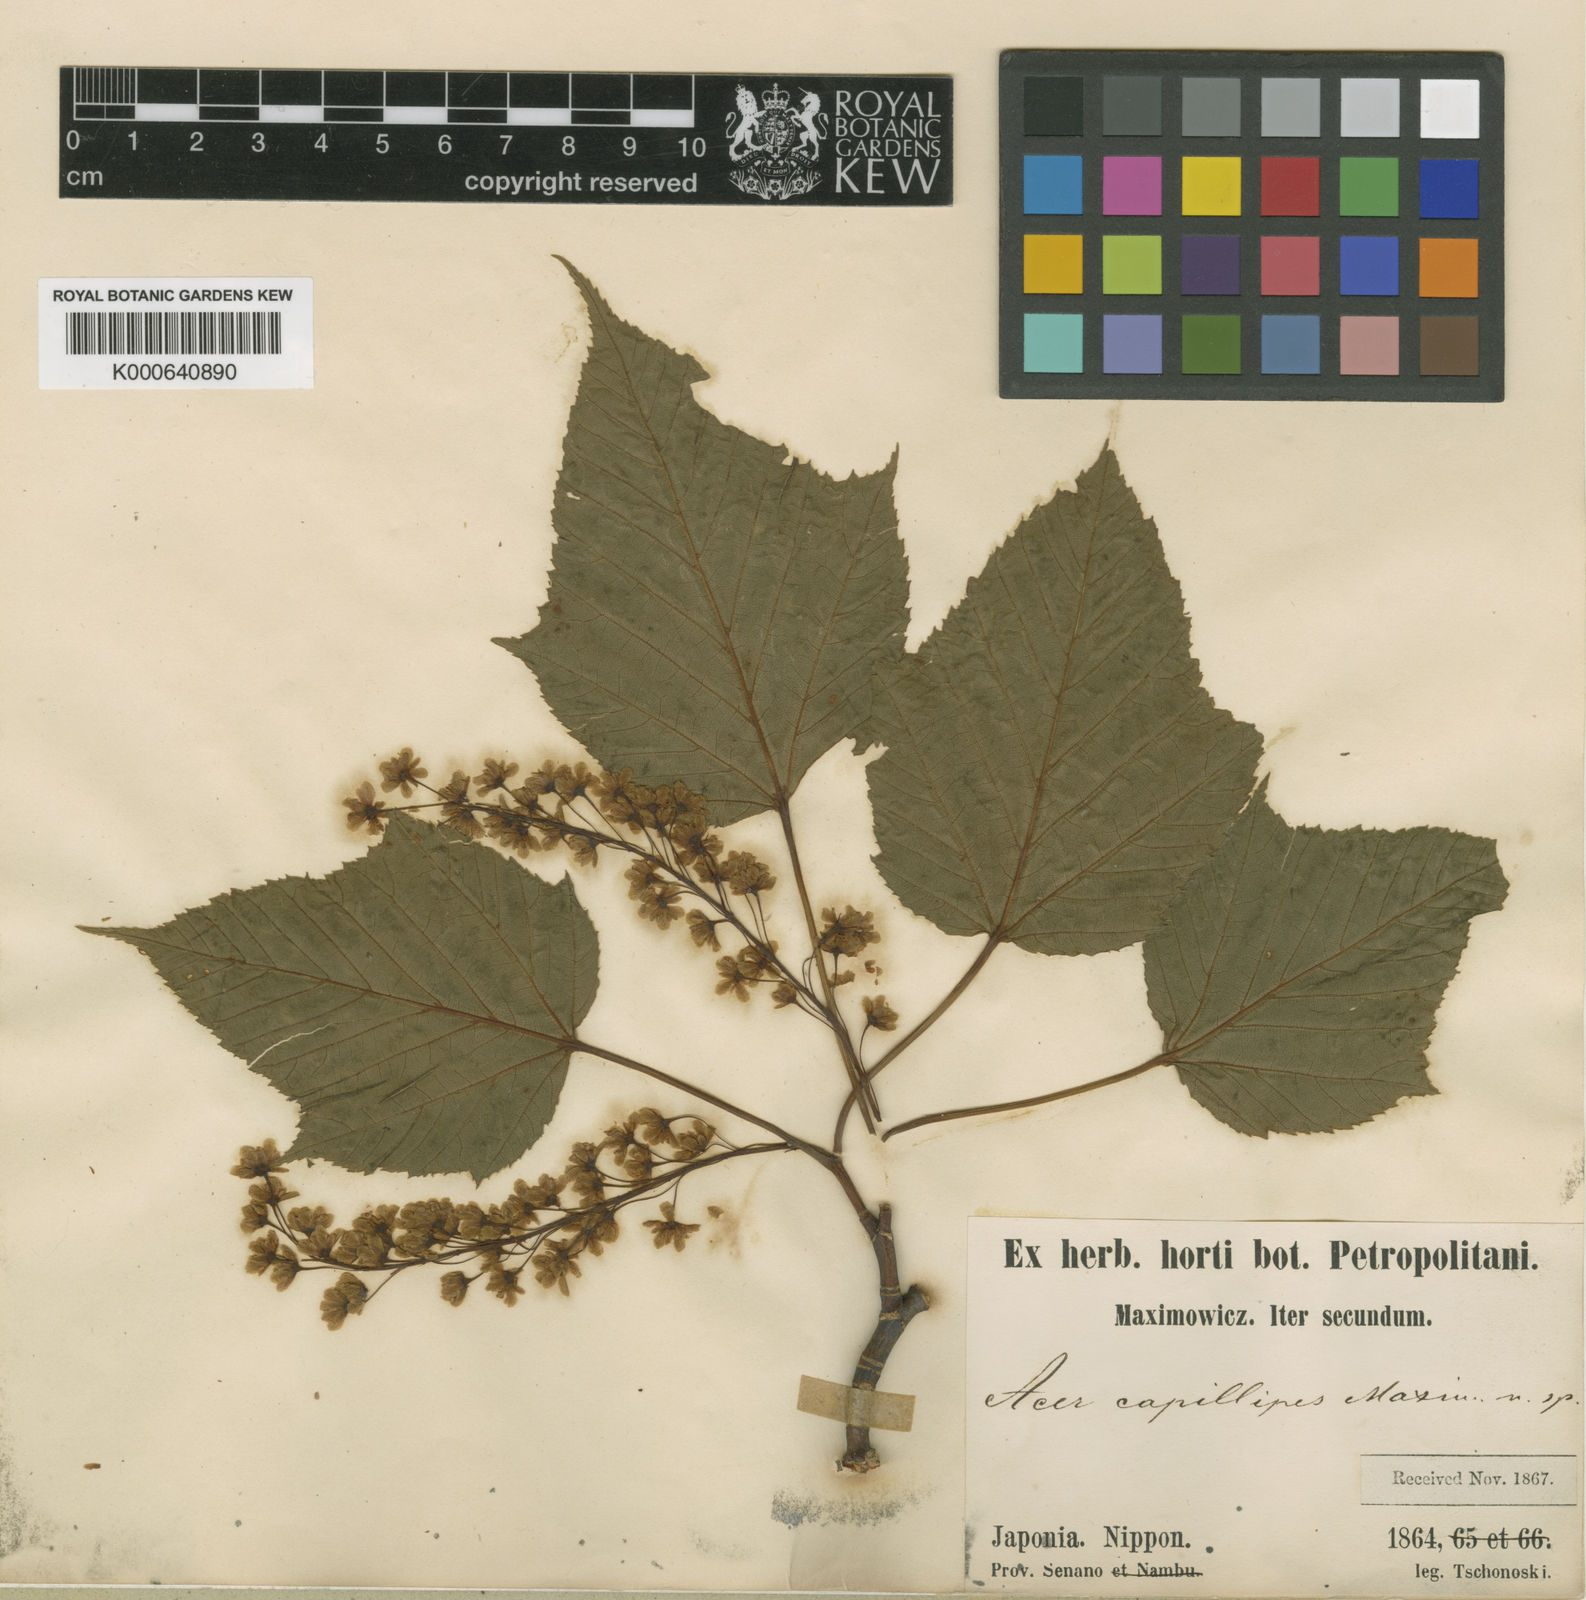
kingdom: Plantae
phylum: Tracheophyta
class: Magnoliopsida
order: Sapindales
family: Sapindaceae
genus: Acer
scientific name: Acer capillipes
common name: Kyushu maple
